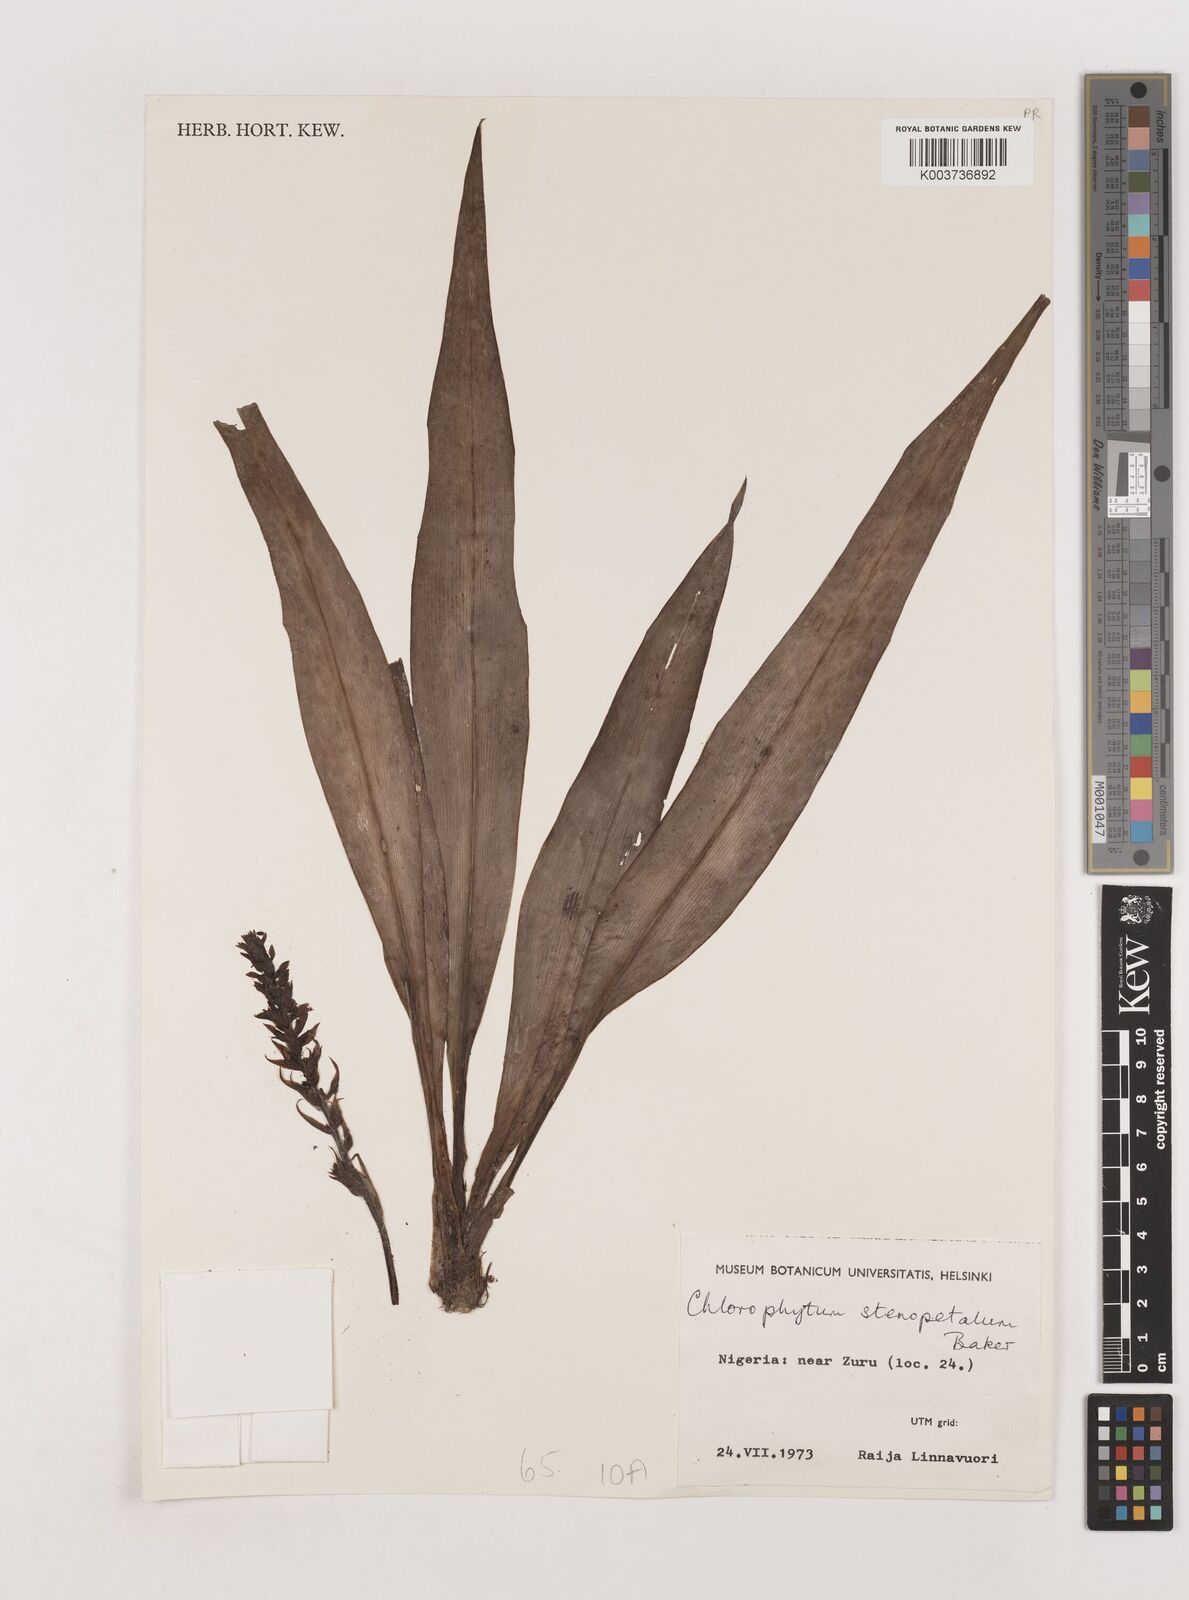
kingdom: Plantae
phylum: Tracheophyta
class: Liliopsida
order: Asparagales
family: Asparagaceae
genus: Chlorophytum
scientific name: Chlorophytum stenopetalum
